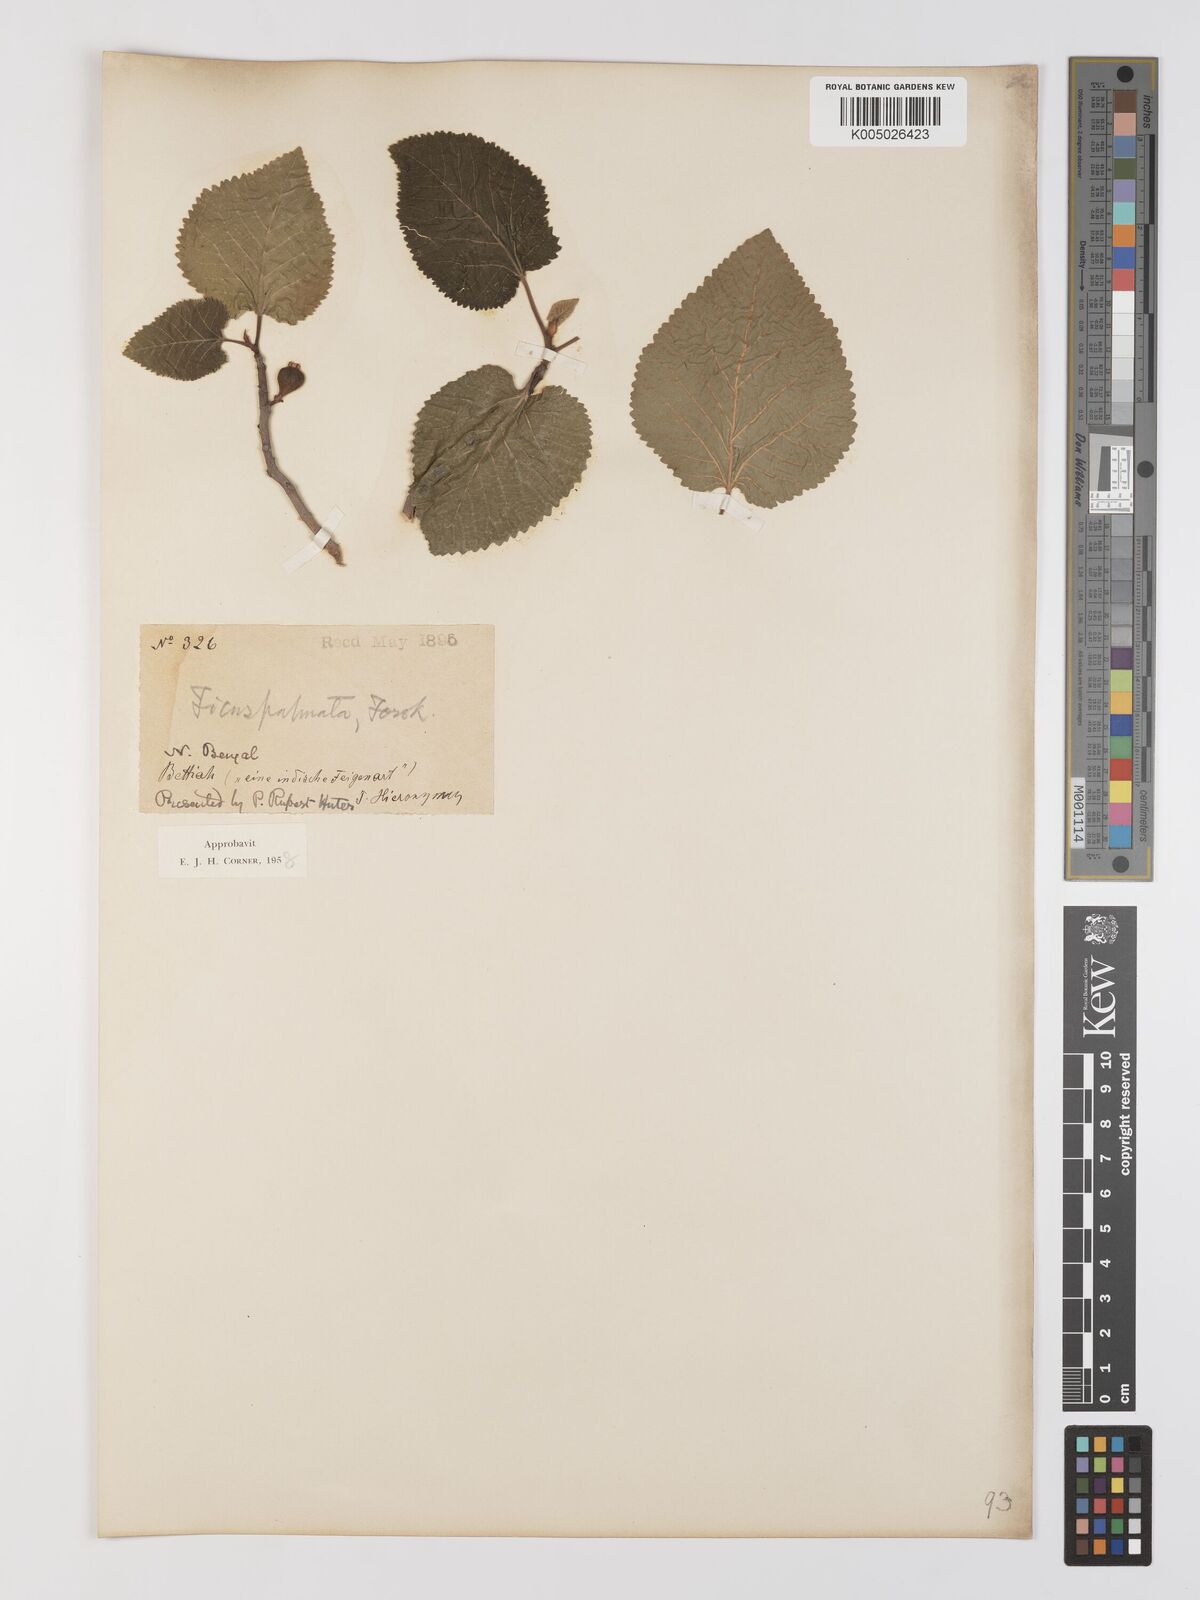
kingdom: Plantae
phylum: Tracheophyta
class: Magnoliopsida
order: Rosales
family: Moraceae
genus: Ficus
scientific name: Ficus
